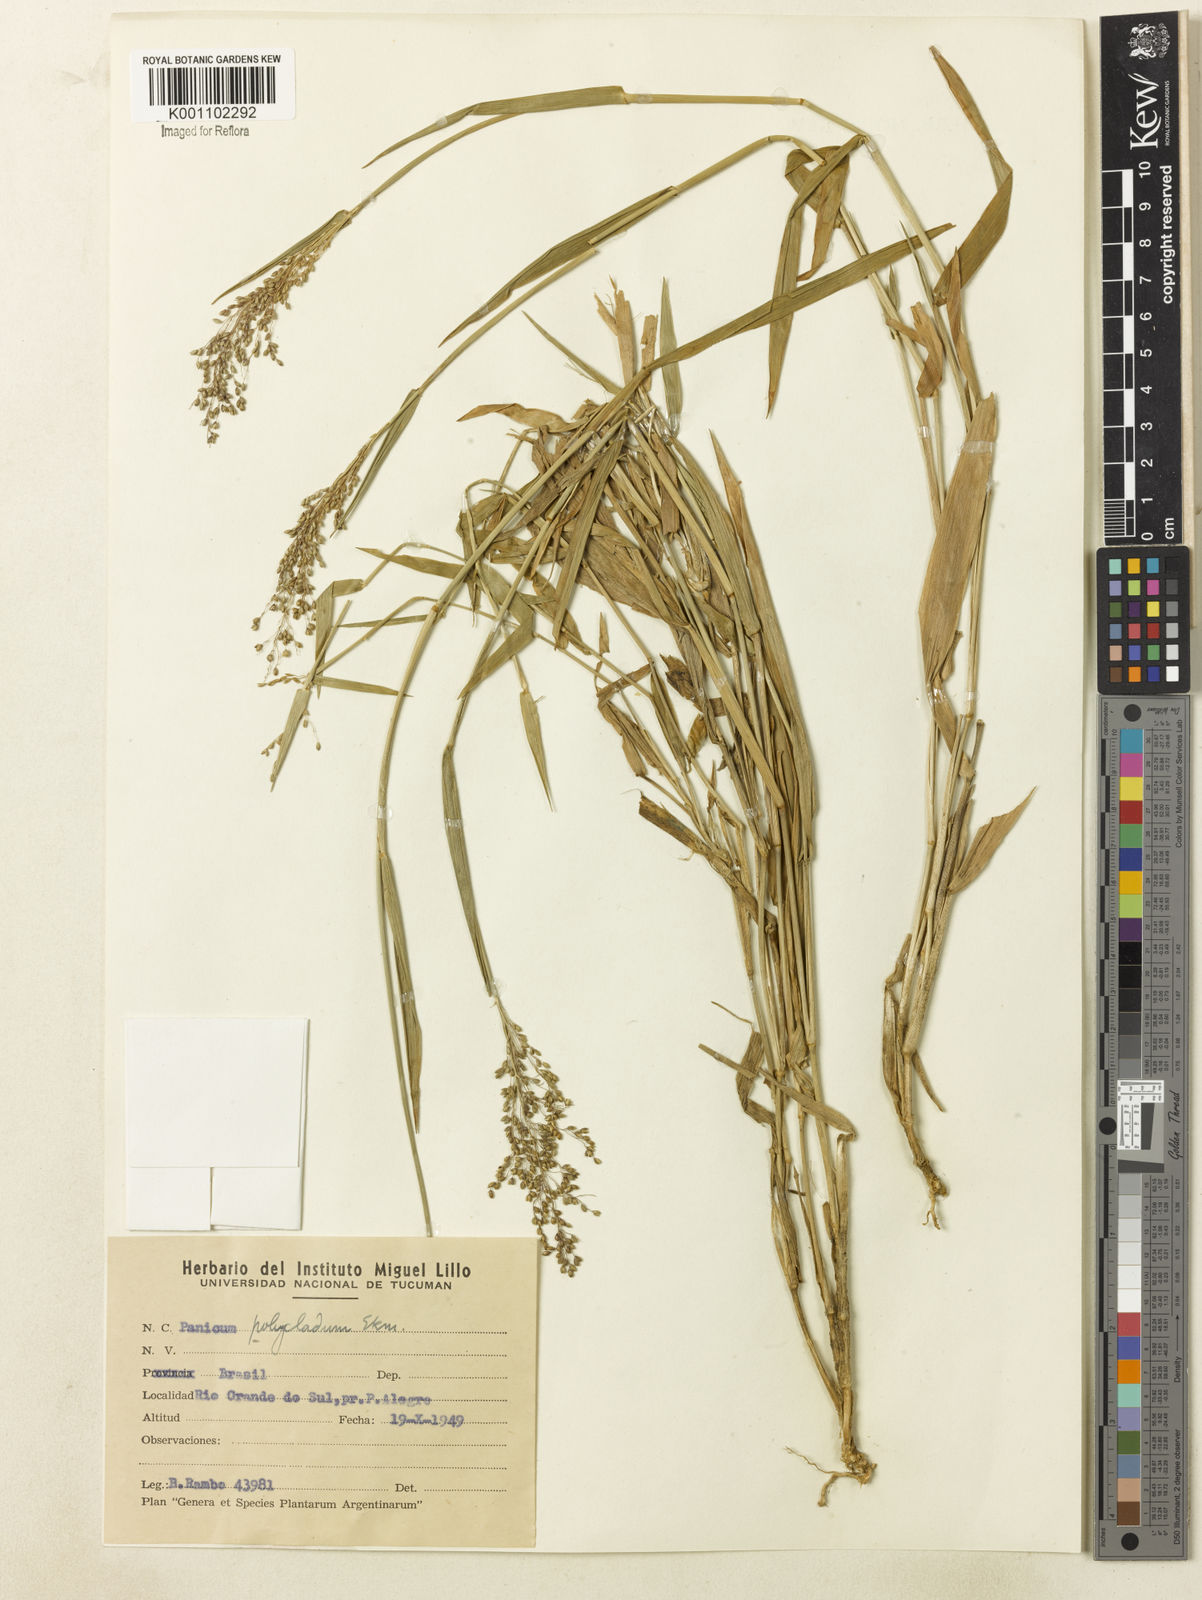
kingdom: Plantae
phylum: Tracheophyta
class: Liliopsida
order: Poales
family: Poaceae
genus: Dichanthelium
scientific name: Dichanthelium stigmosum
